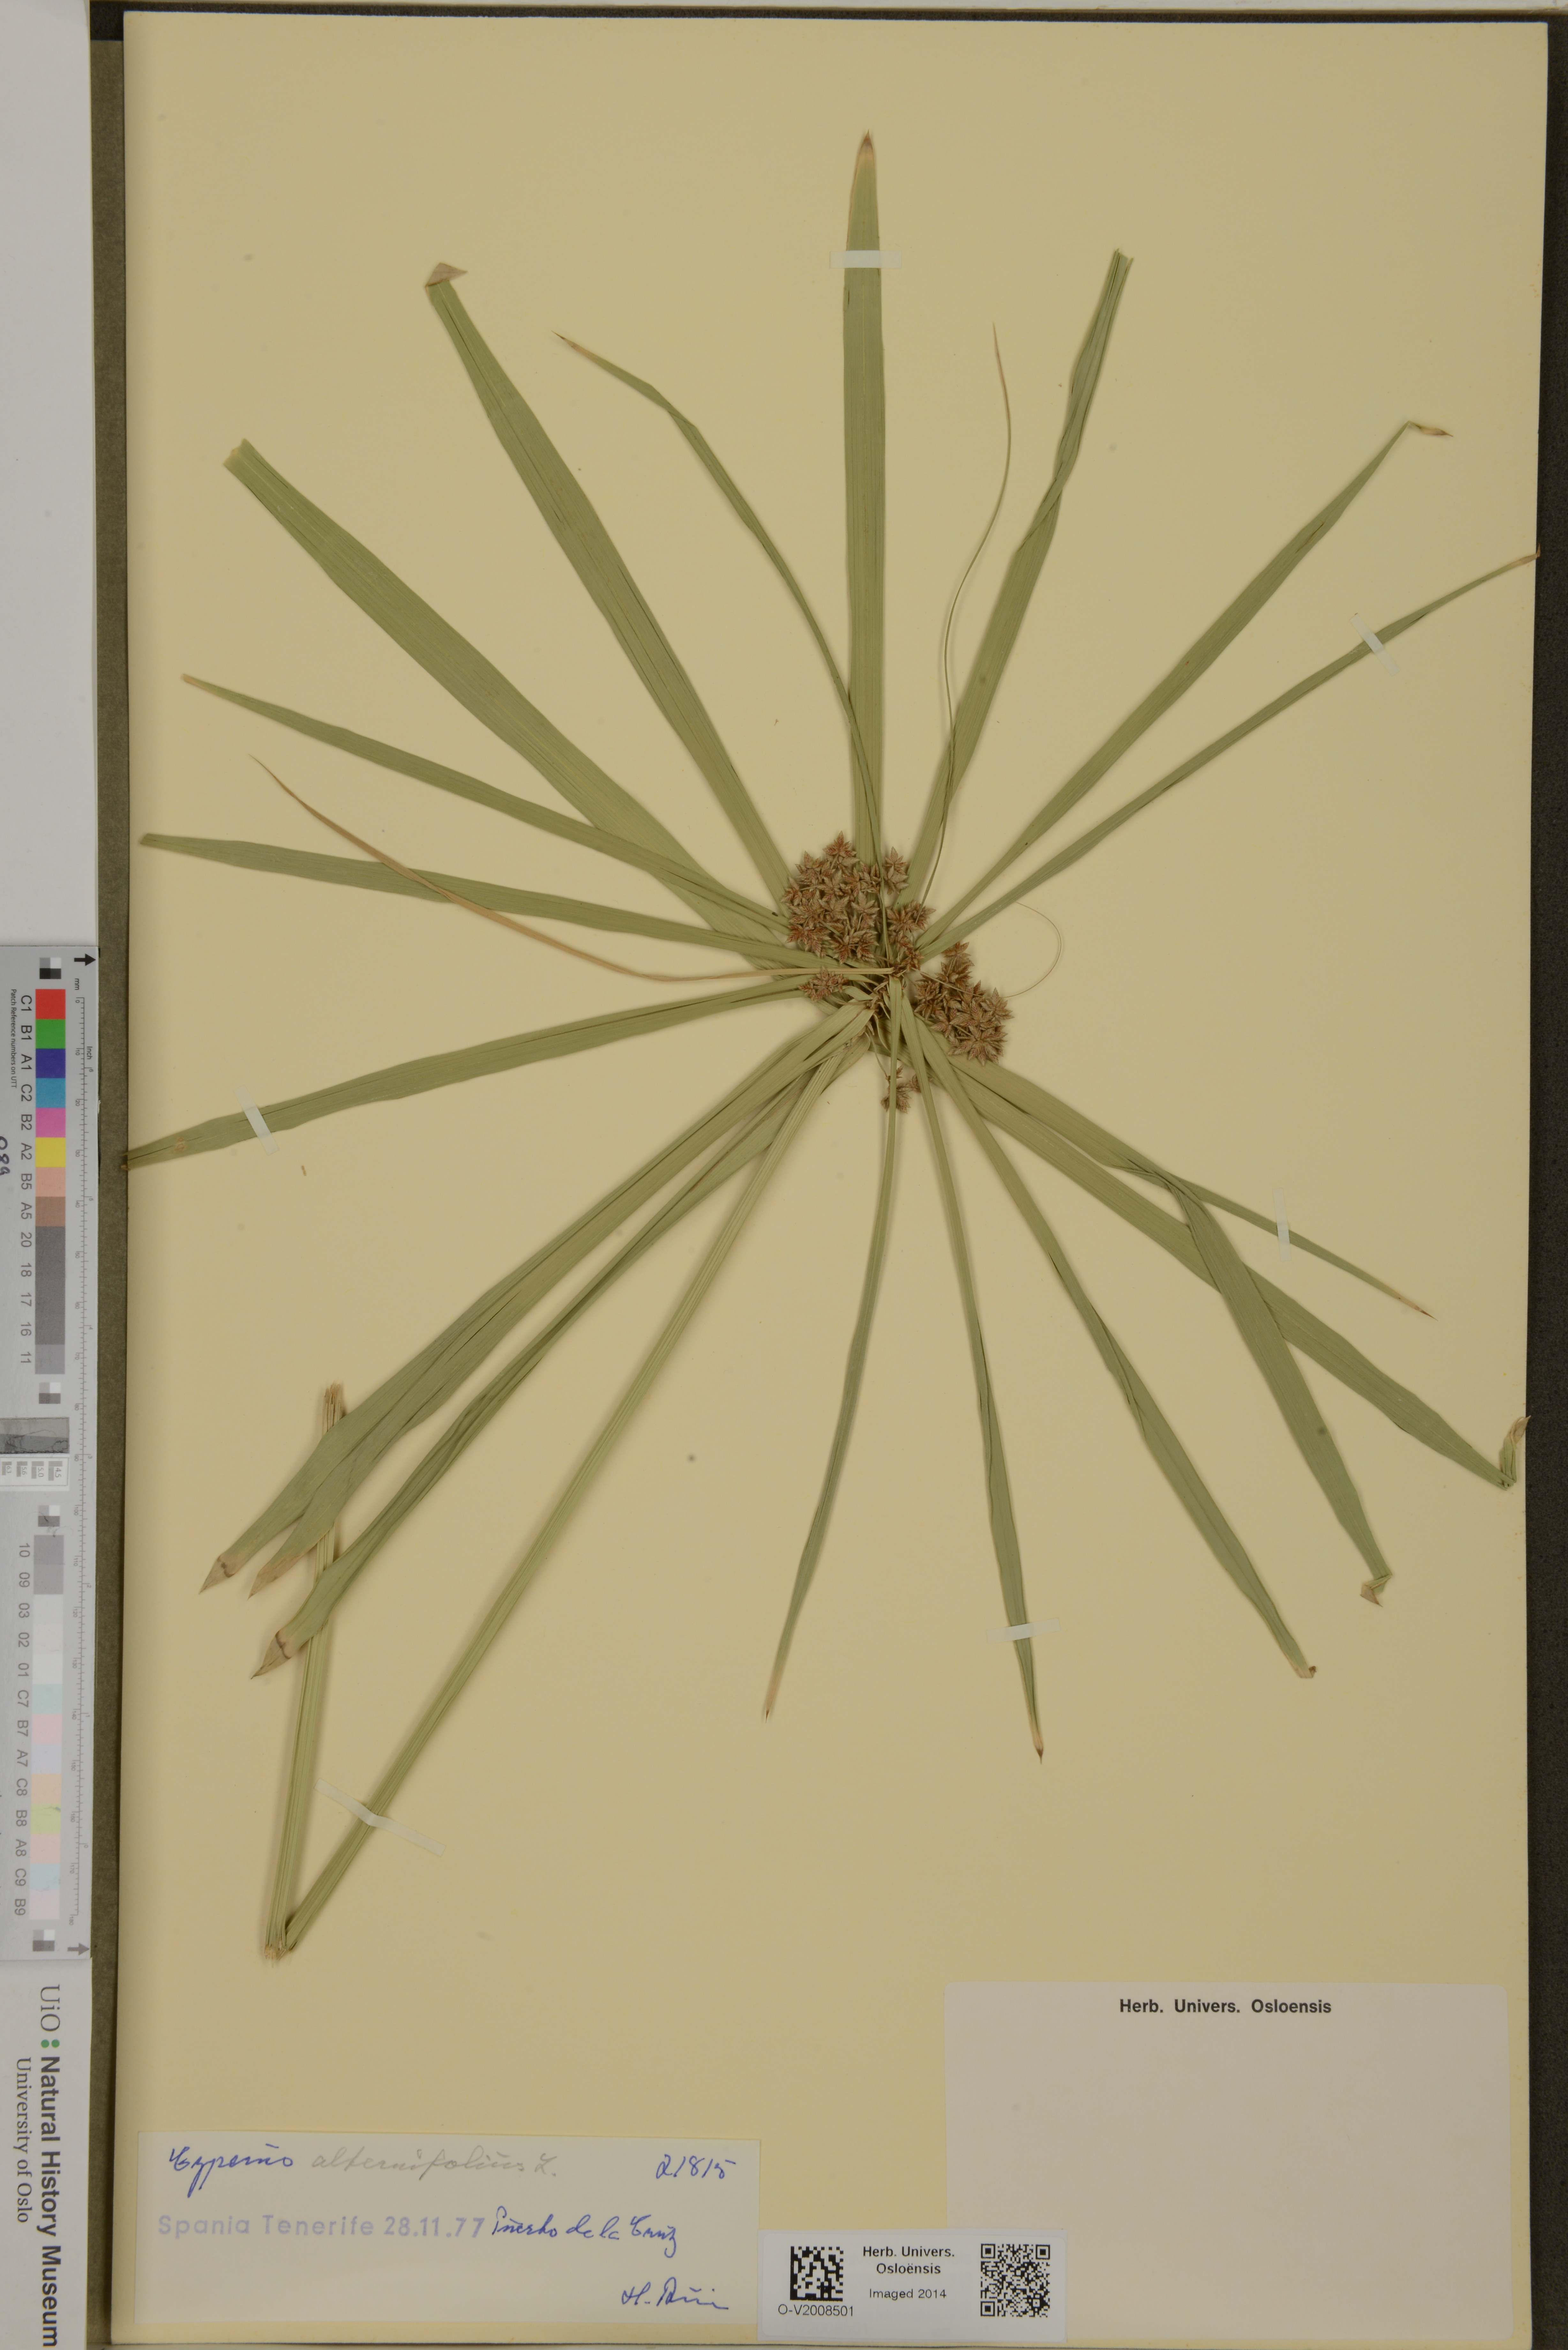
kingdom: Plantae
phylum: Tracheophyta
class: Liliopsida
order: Poales
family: Cyperaceae
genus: Cyperus
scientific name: Cyperus alternifolius
